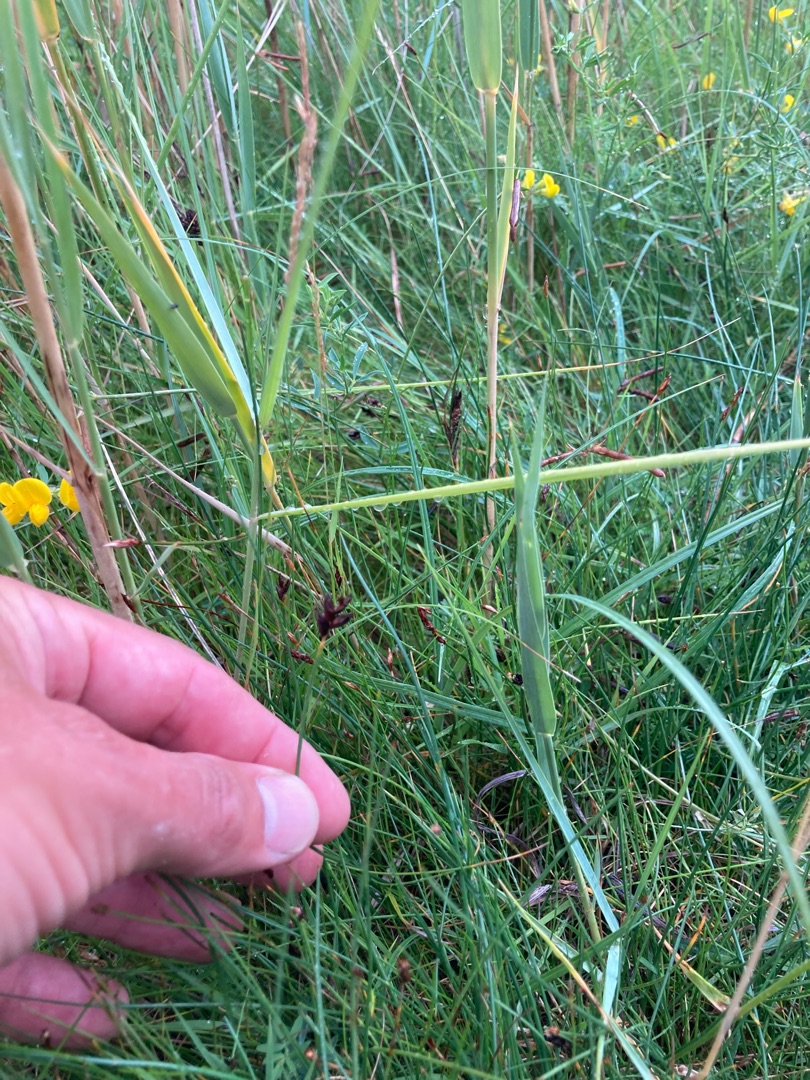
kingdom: Plantae
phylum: Tracheophyta
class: Liliopsida
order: Poales
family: Cyperaceae
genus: Blysmus
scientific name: Blysmus rufus
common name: Rødbrun kogleaks
